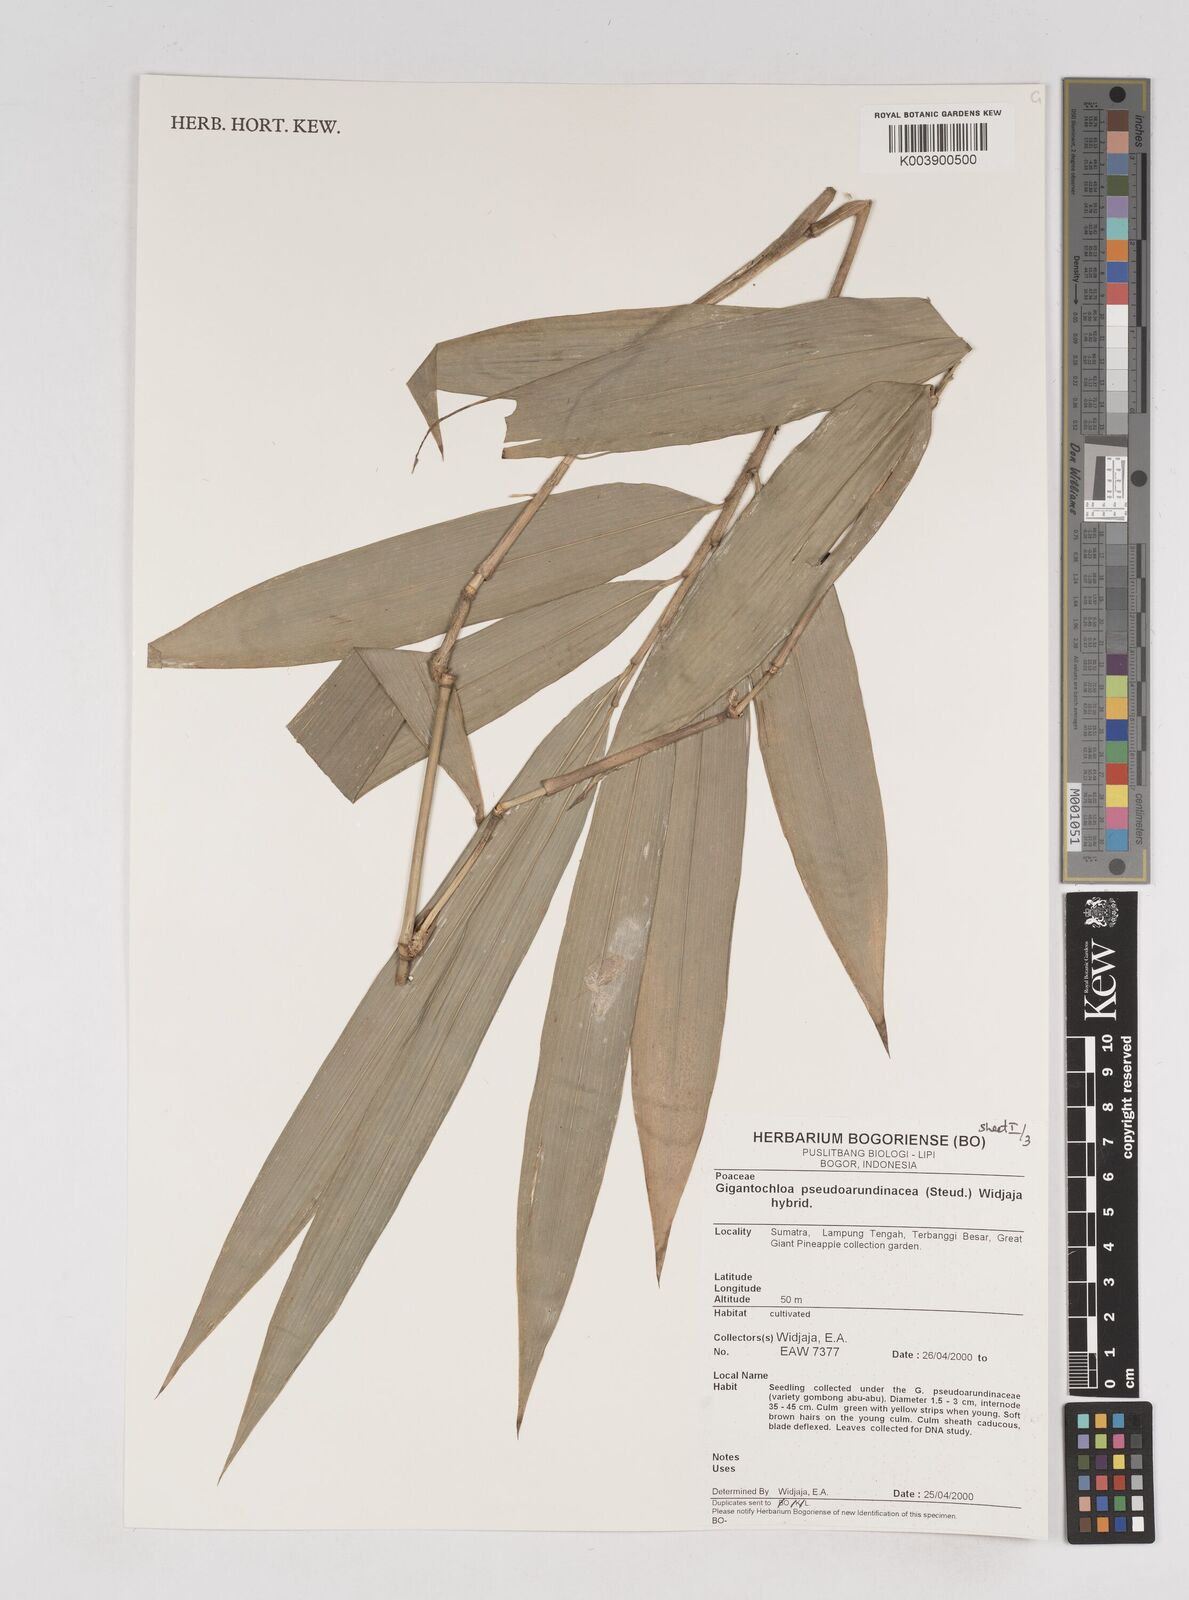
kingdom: Plantae
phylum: Tracheophyta
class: Liliopsida
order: Poales
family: Poaceae
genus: Gigantochloa
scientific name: Gigantochloa verticillata
